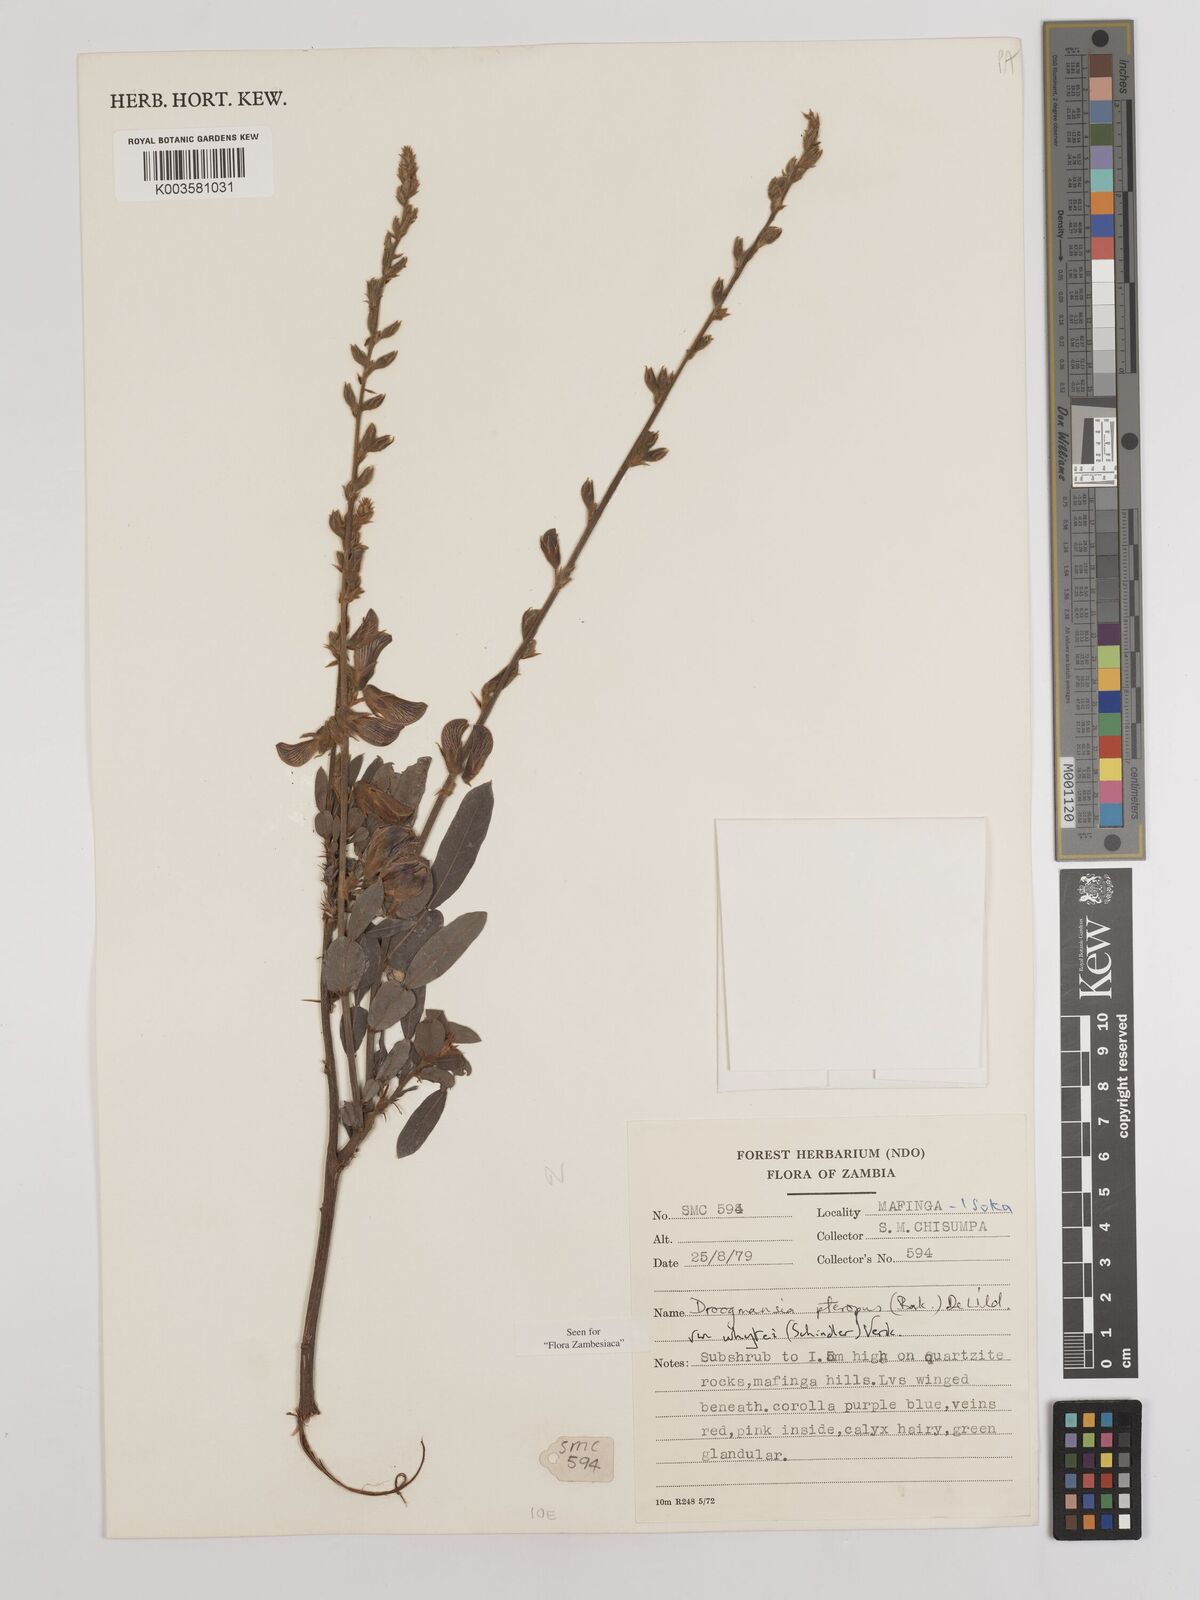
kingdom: Plantae
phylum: Tracheophyta
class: Magnoliopsida
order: Fabales
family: Fabaceae
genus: Droogmansia
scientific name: Droogmansia pteropus
